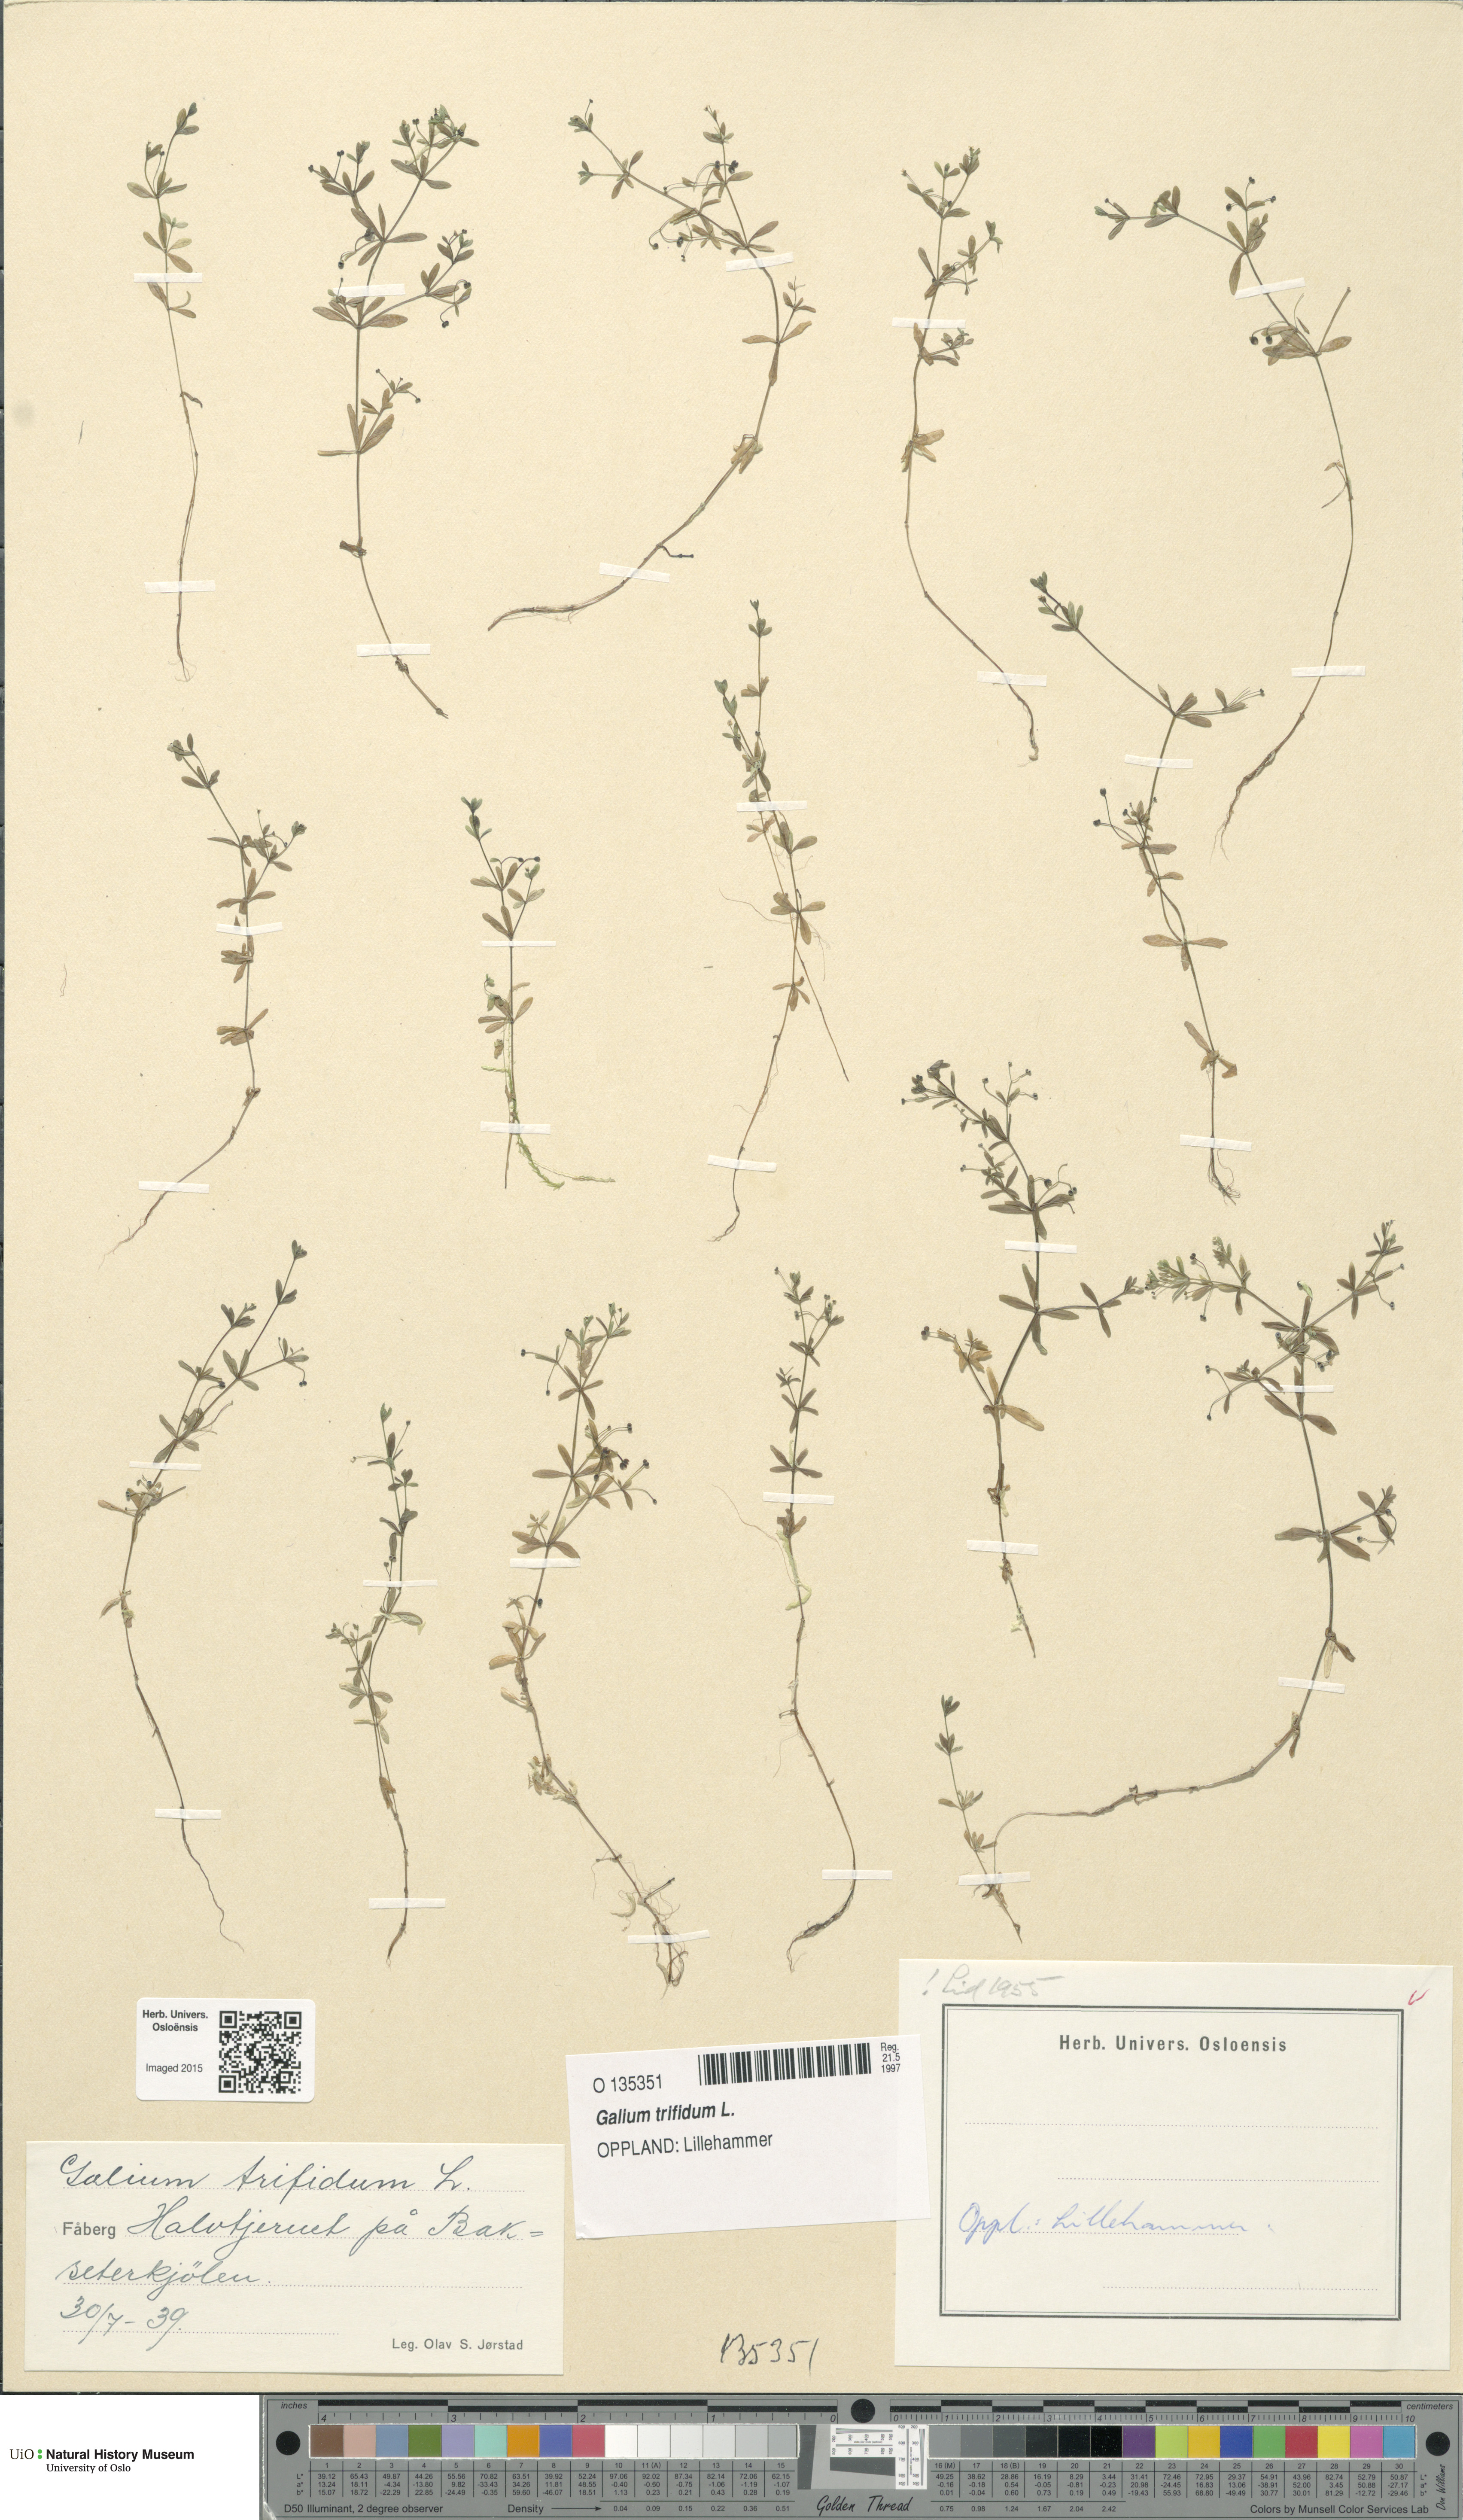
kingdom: Plantae
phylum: Tracheophyta
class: Magnoliopsida
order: Gentianales
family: Rubiaceae
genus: Galium
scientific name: Galium trifidum
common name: Small bedstraw
